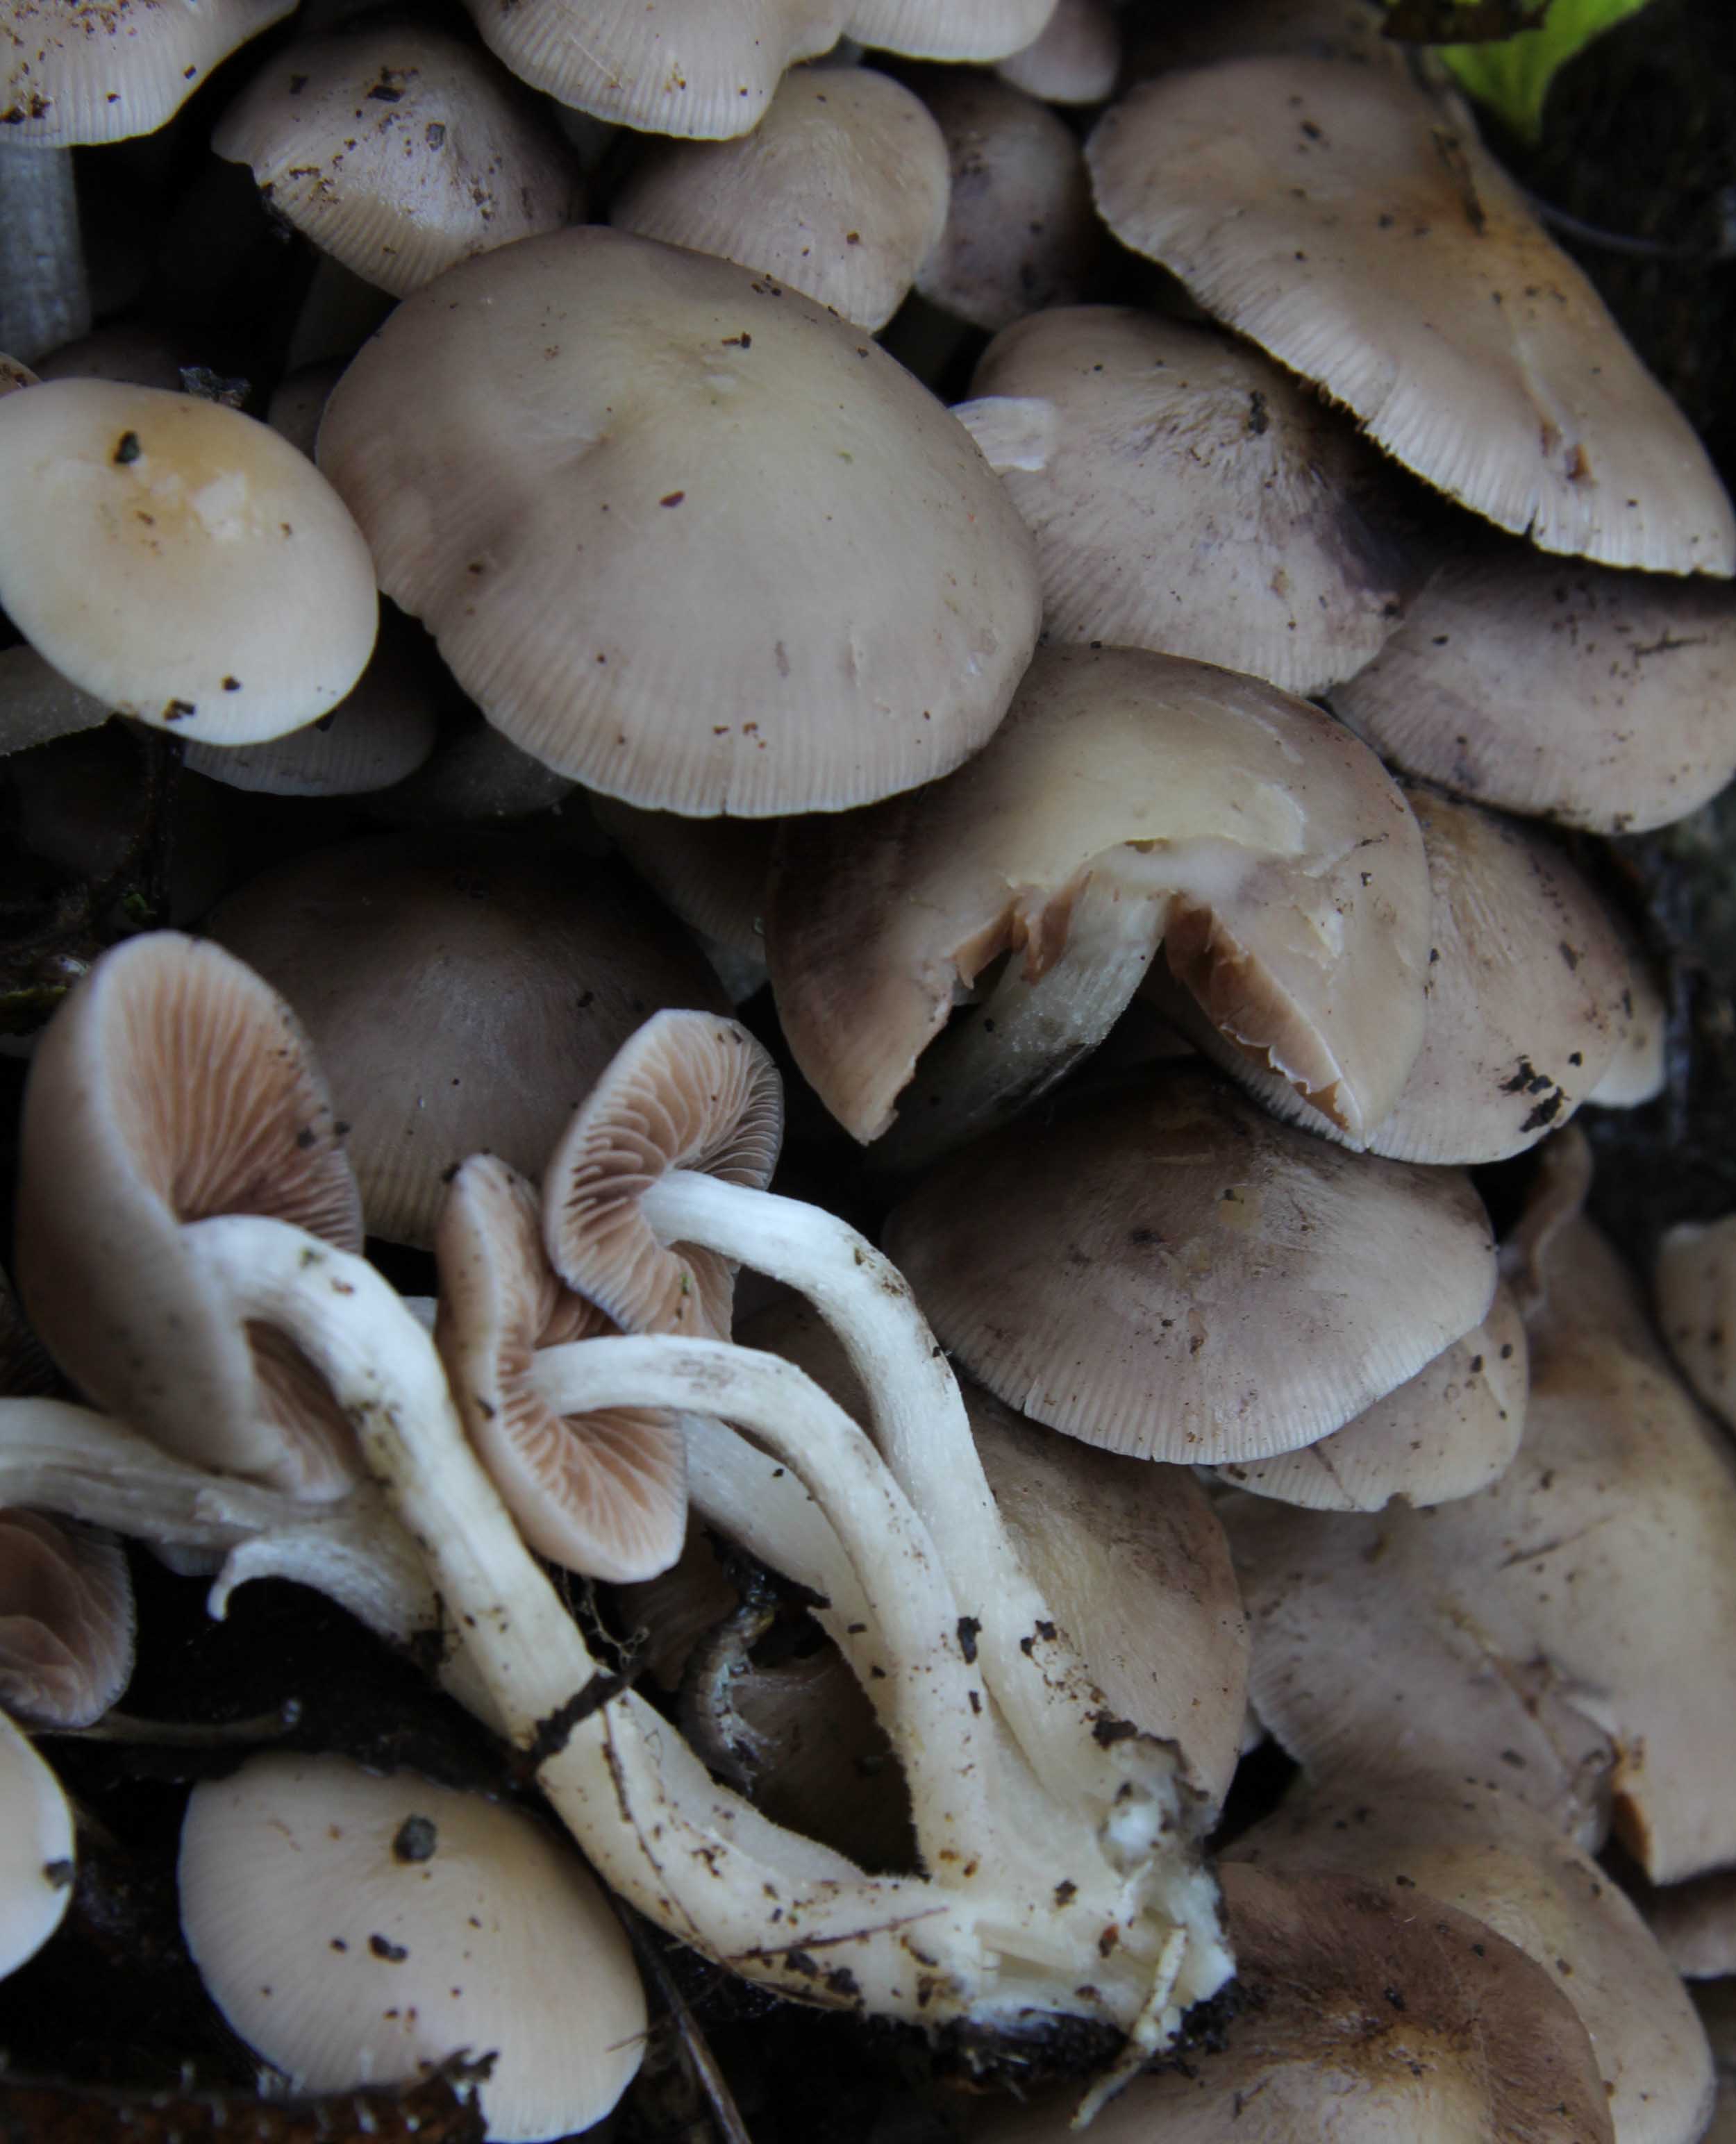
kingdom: Fungi
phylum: Basidiomycota
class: Agaricomycetes
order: Agaricales
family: Psathyrellaceae
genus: Homophron
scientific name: Homophron cernuum
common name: hvidlig mørkhat
